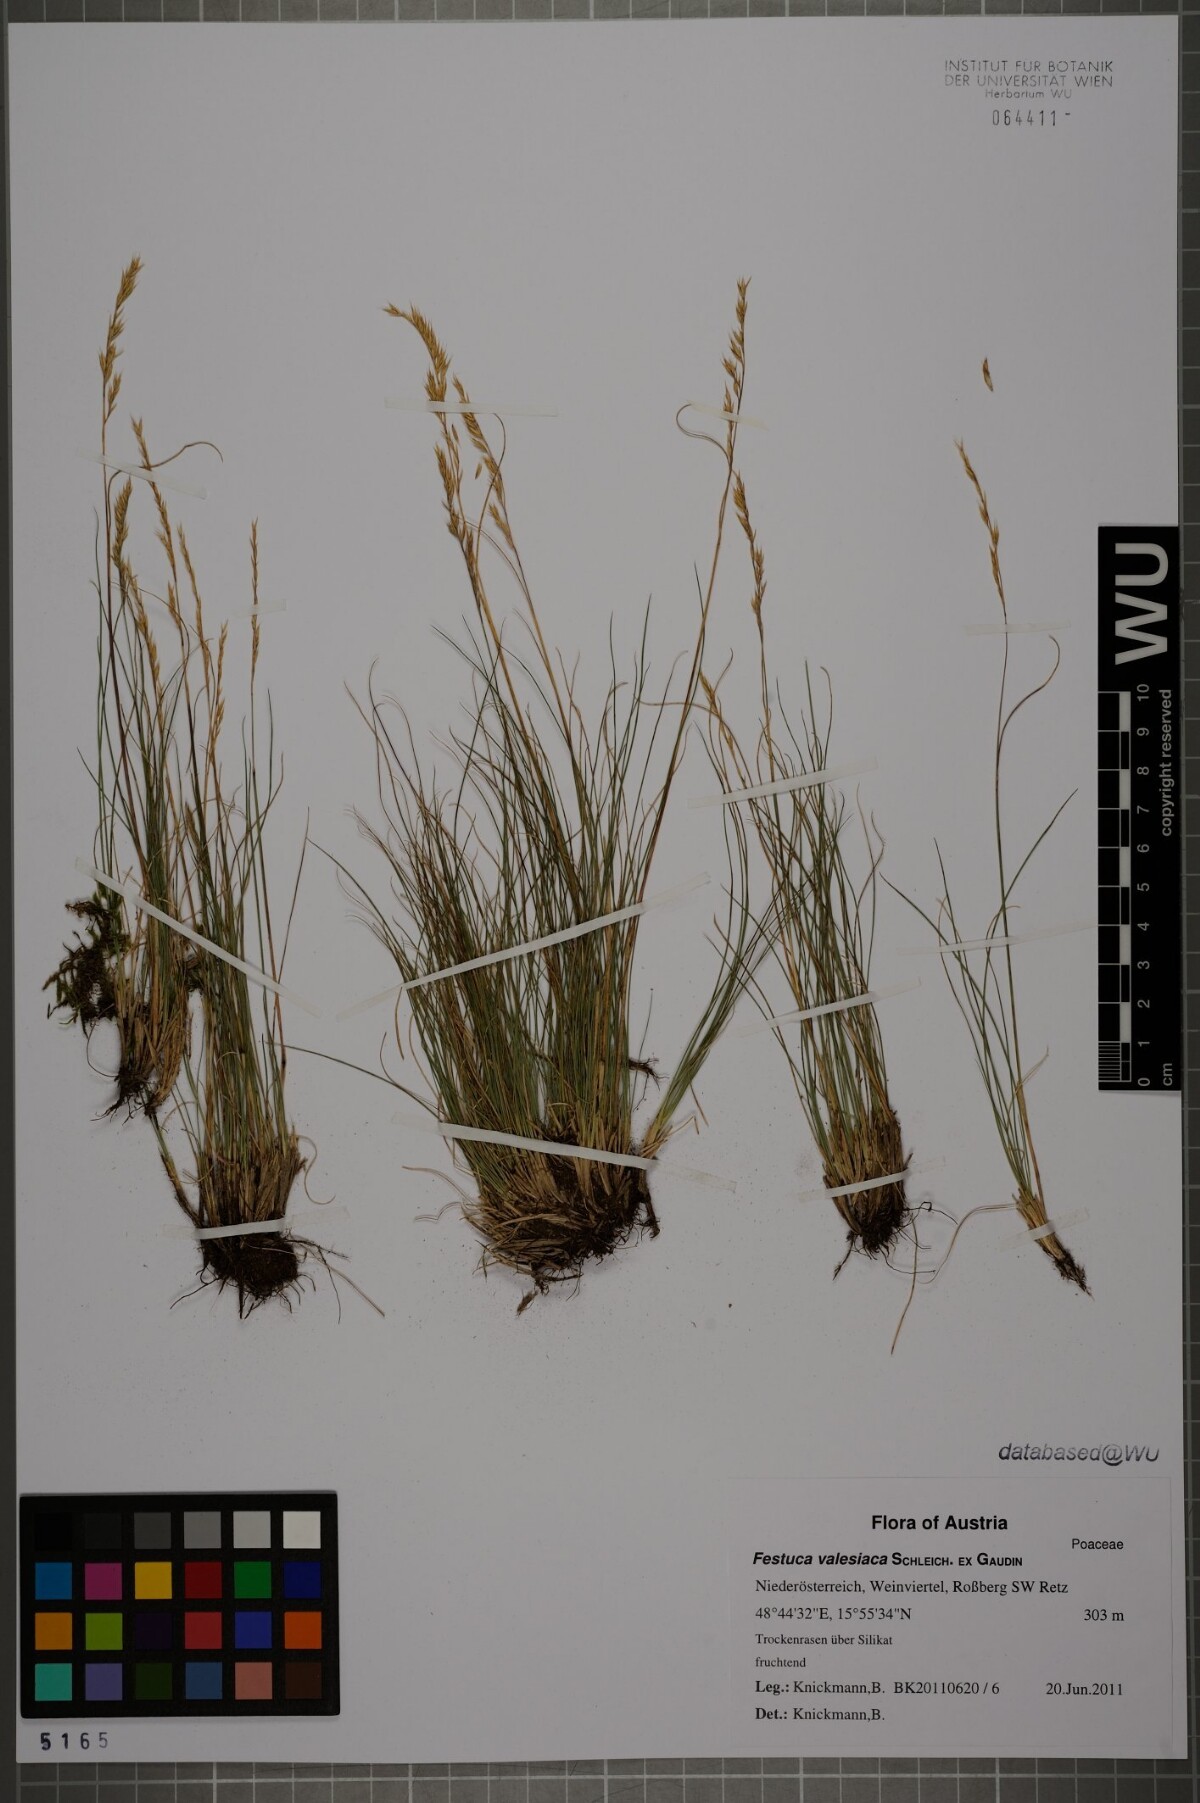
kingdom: Plantae
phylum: Tracheophyta
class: Liliopsida
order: Poales
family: Poaceae
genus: Festuca
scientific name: Festuca valesiaca
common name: Volga fescue
